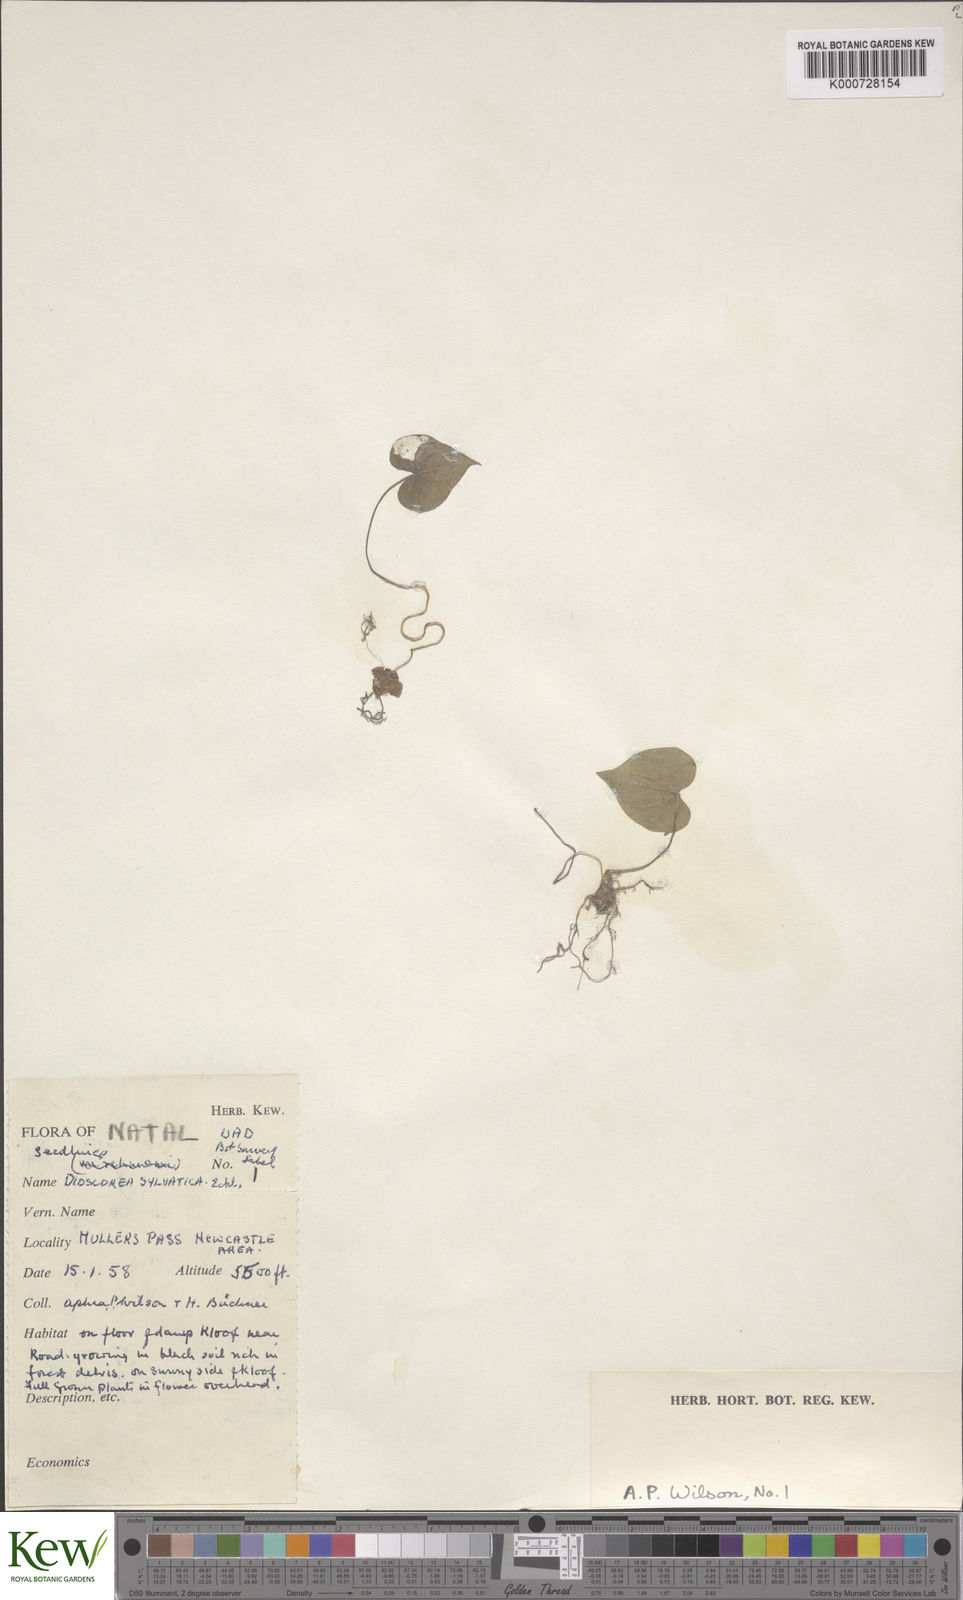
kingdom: Plantae
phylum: Tracheophyta
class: Liliopsida
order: Dioscoreales
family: Dioscoreaceae
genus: Dioscorea
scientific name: Dioscorea sylvatica
